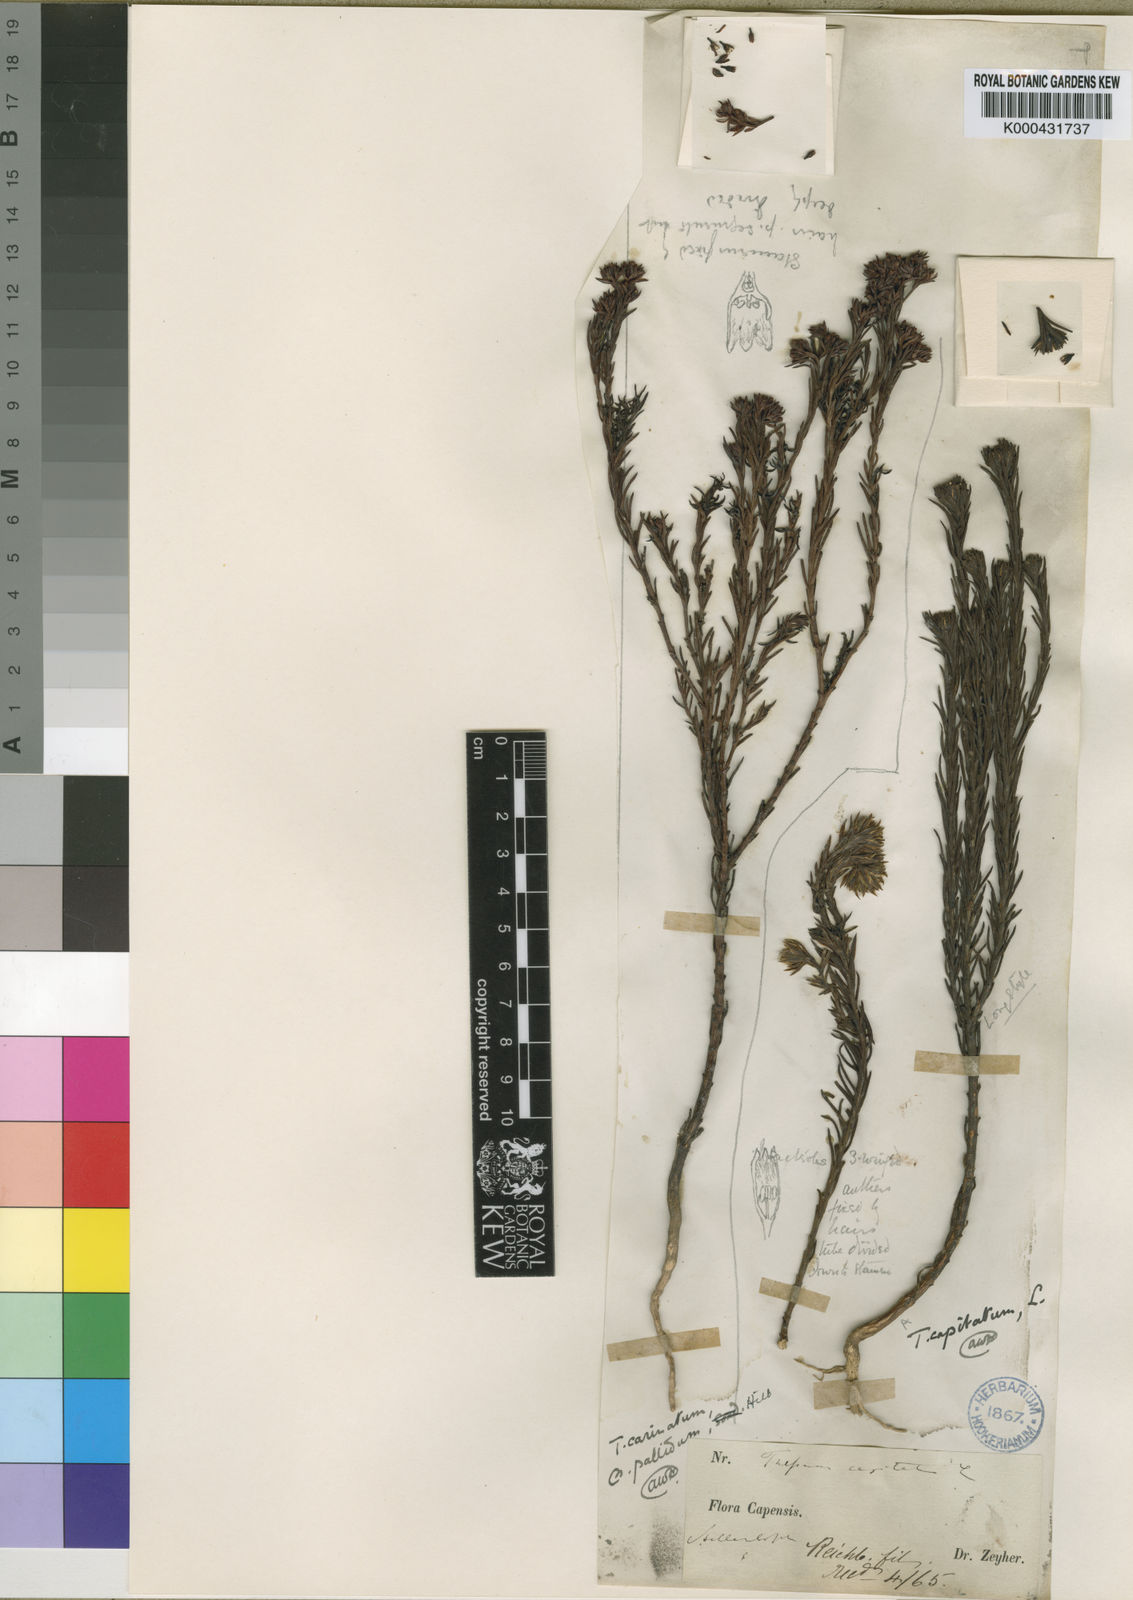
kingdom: Plantae
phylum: Tracheophyta
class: Magnoliopsida
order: Santalales
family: Thesiaceae
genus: Thesium
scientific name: Thesium carinatum
